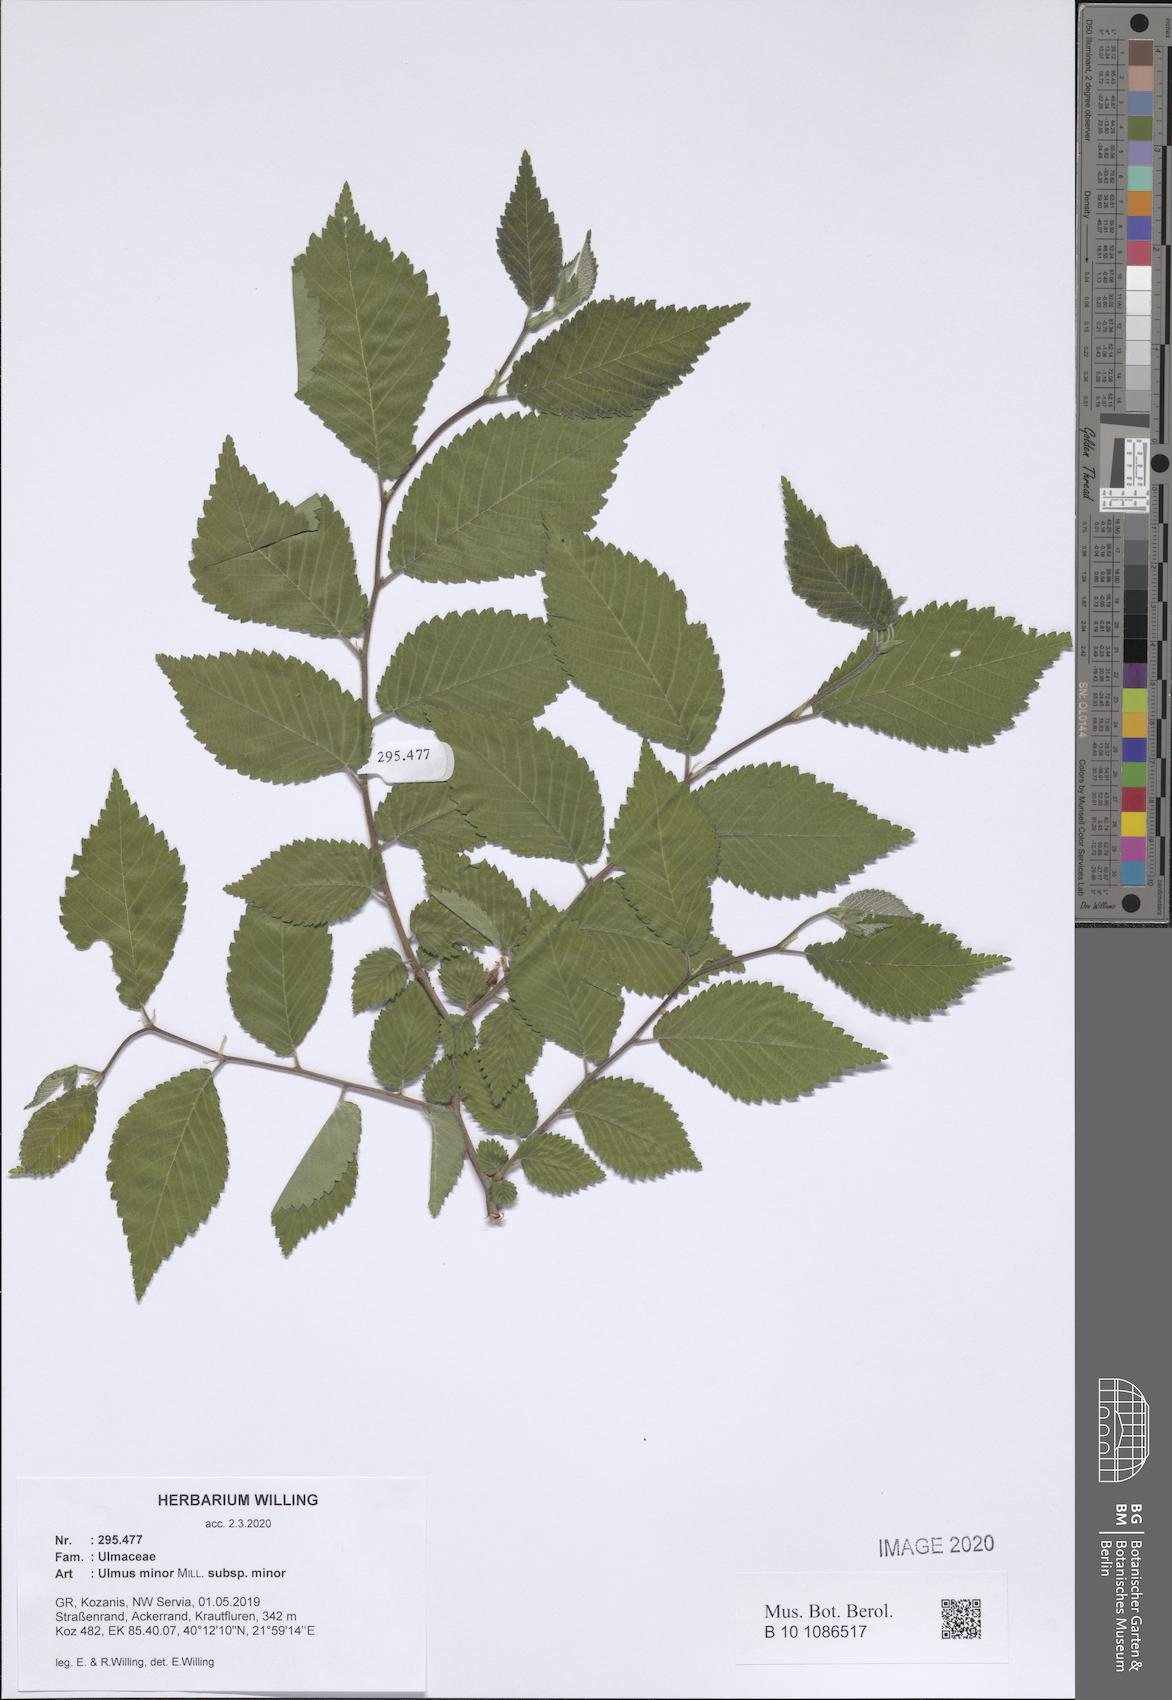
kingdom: Plantae
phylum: Tracheophyta
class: Magnoliopsida
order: Rosales
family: Ulmaceae
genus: Ulmus
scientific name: Ulmus minor
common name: Small-leaved elm
